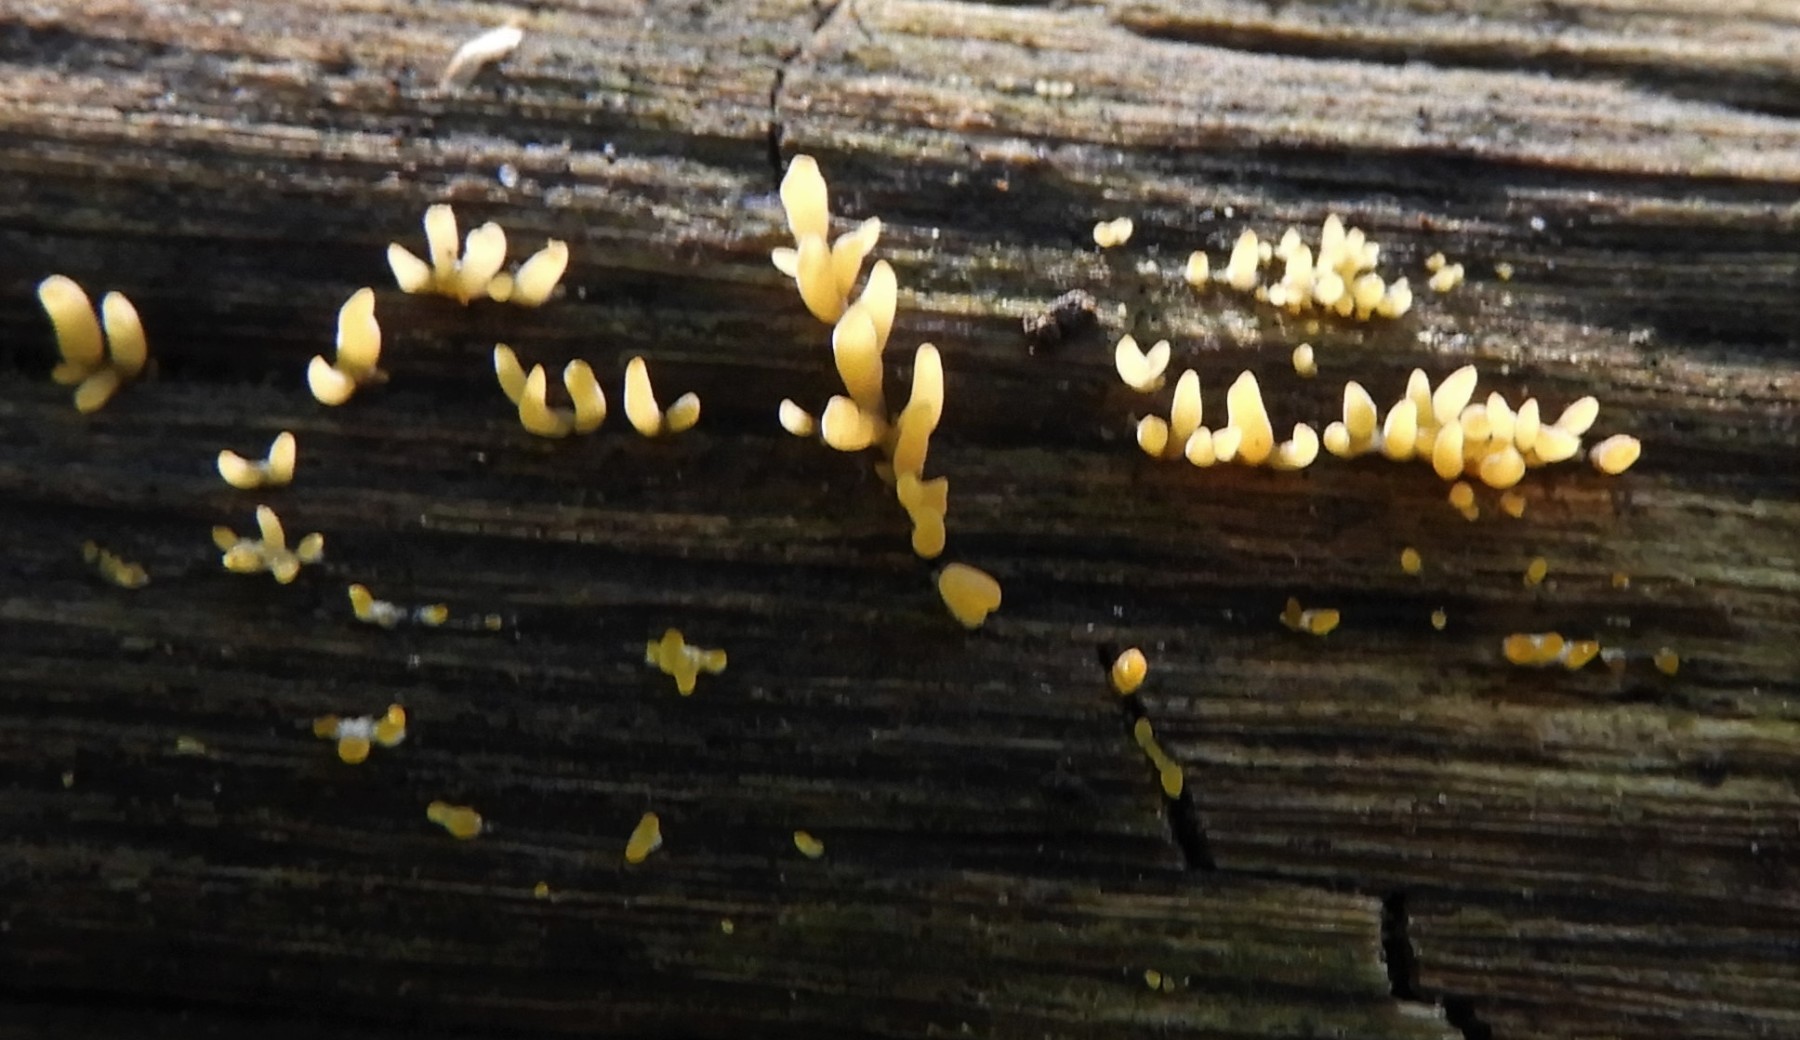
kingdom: Fungi
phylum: Basidiomycota
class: Dacrymycetes
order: Dacrymycetales
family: Dacrymycetaceae
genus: Calocera
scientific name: Calocera cornea
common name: liden guldgaffel
